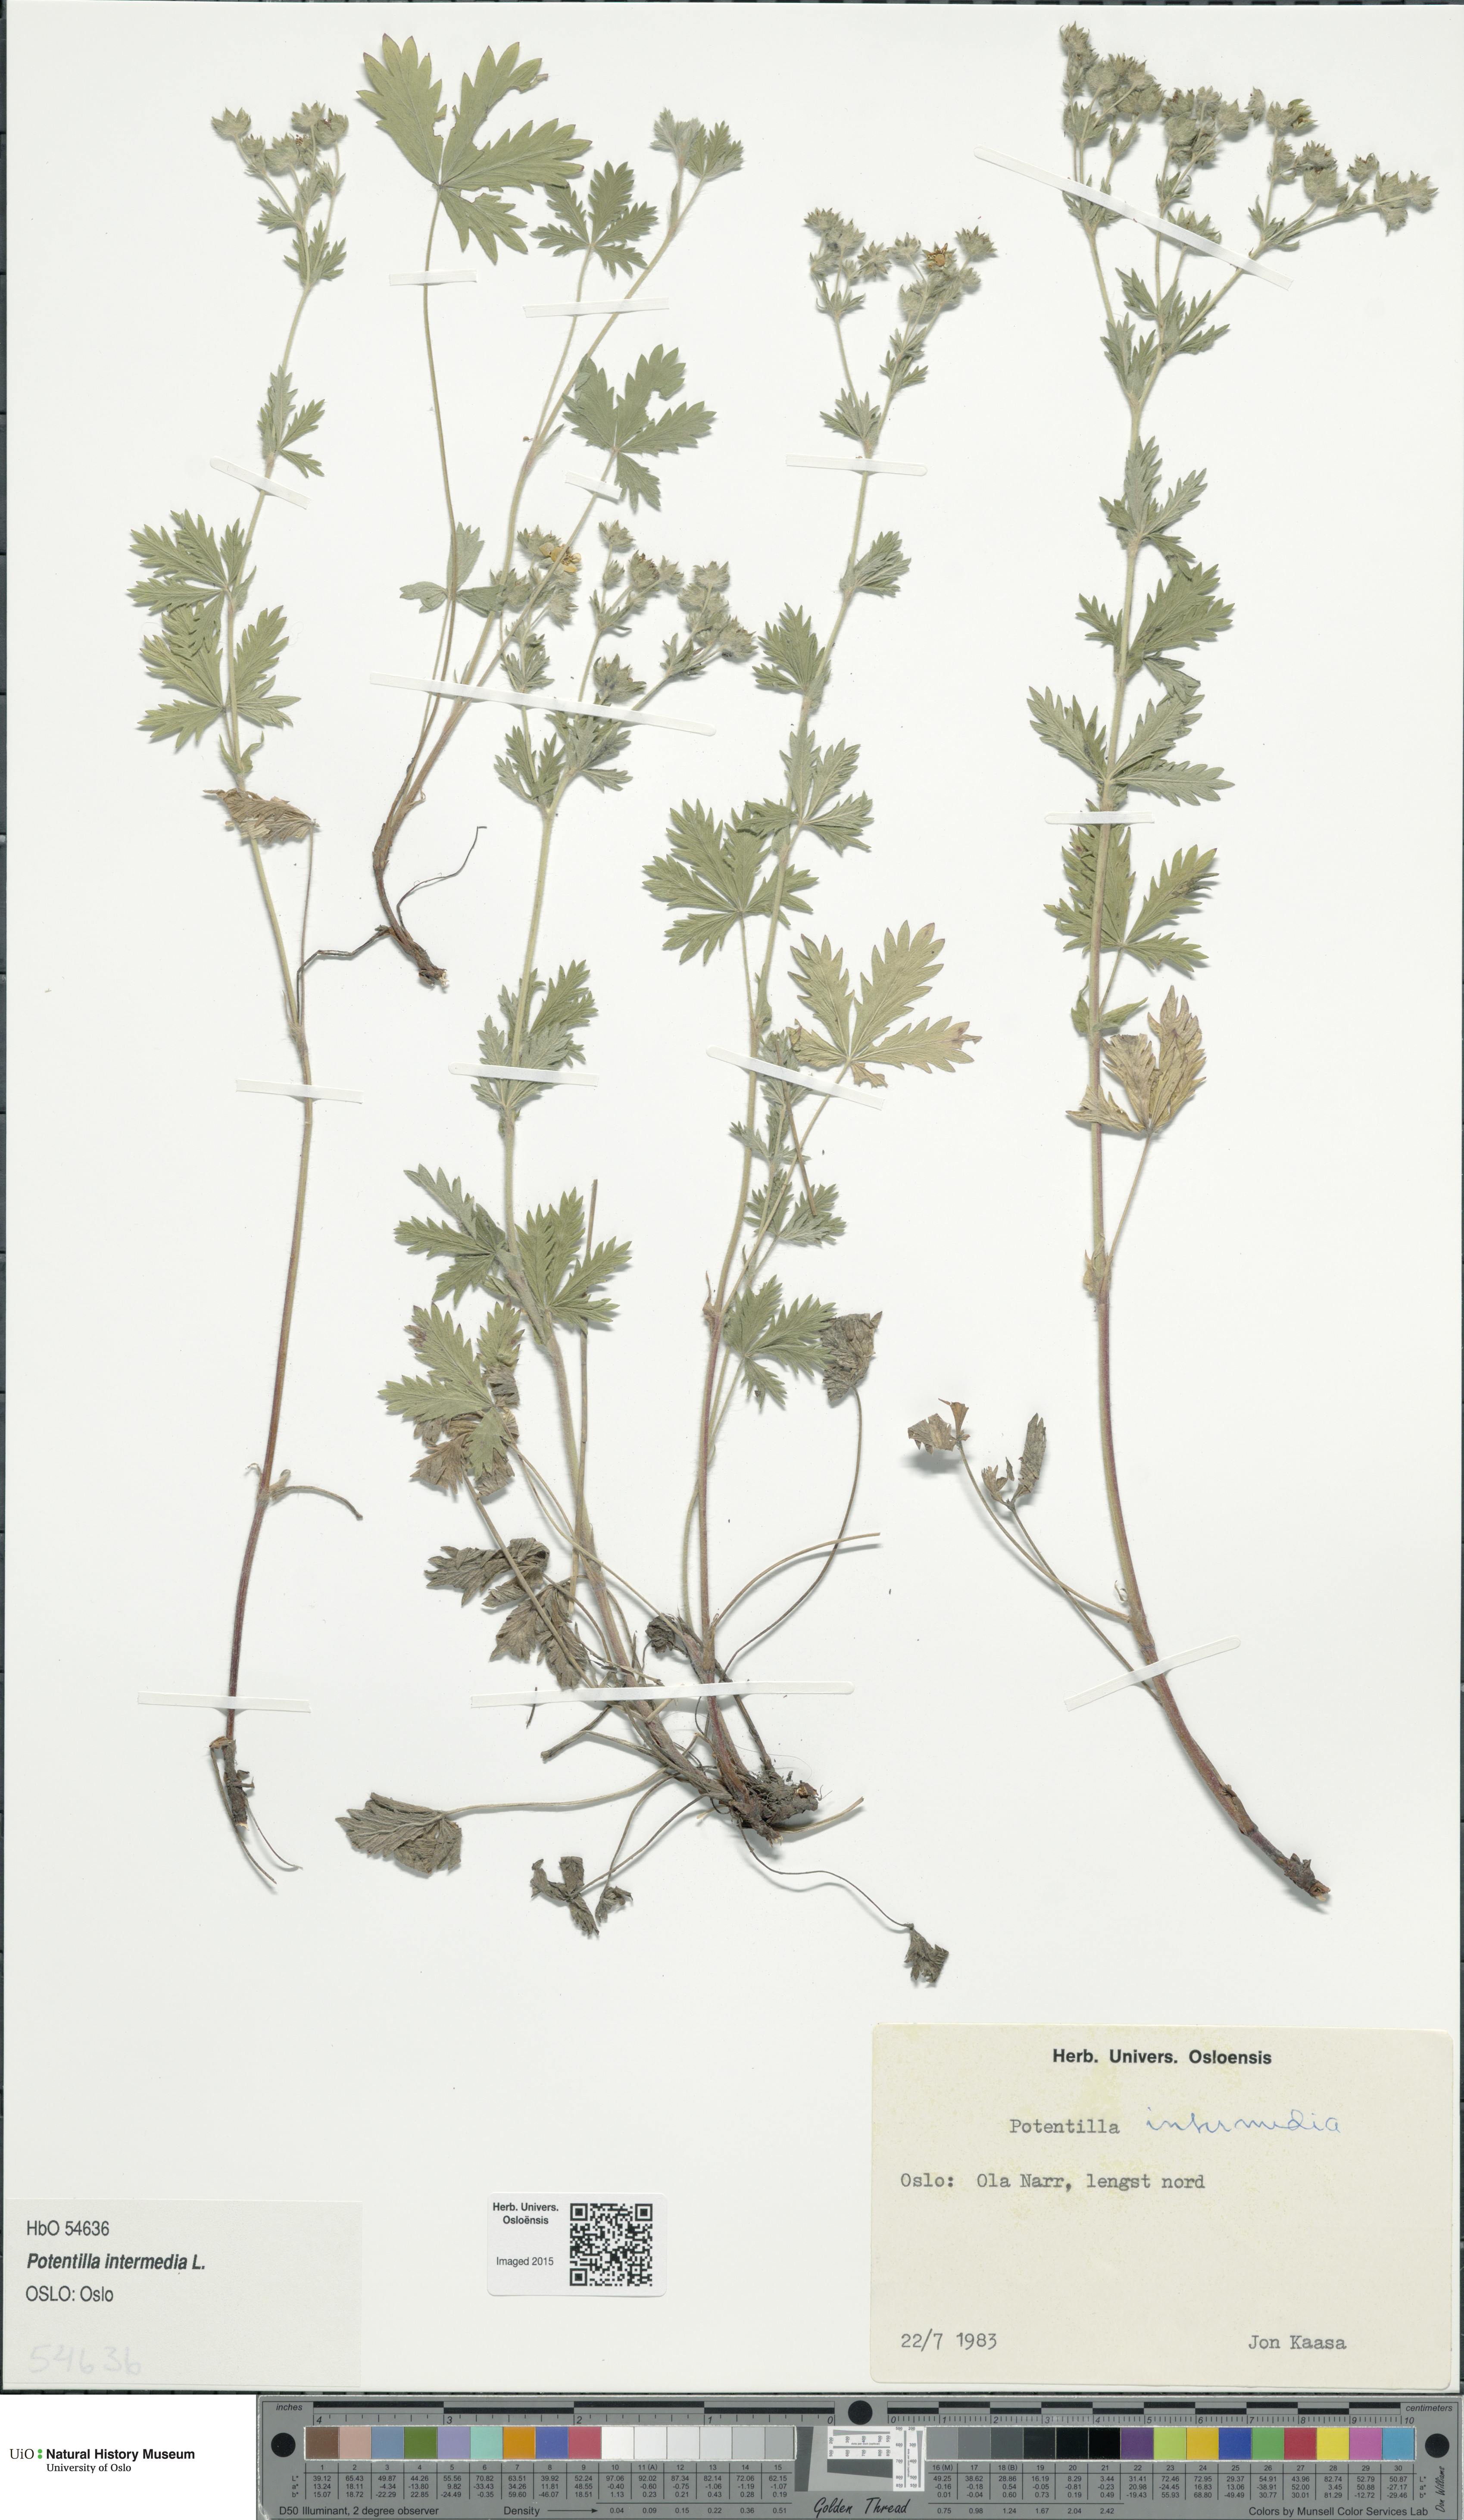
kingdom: Plantae
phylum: Tracheophyta
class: Magnoliopsida
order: Rosales
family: Rosaceae
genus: Potentilla
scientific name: Potentilla intermedia
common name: Downy cinquefoil
